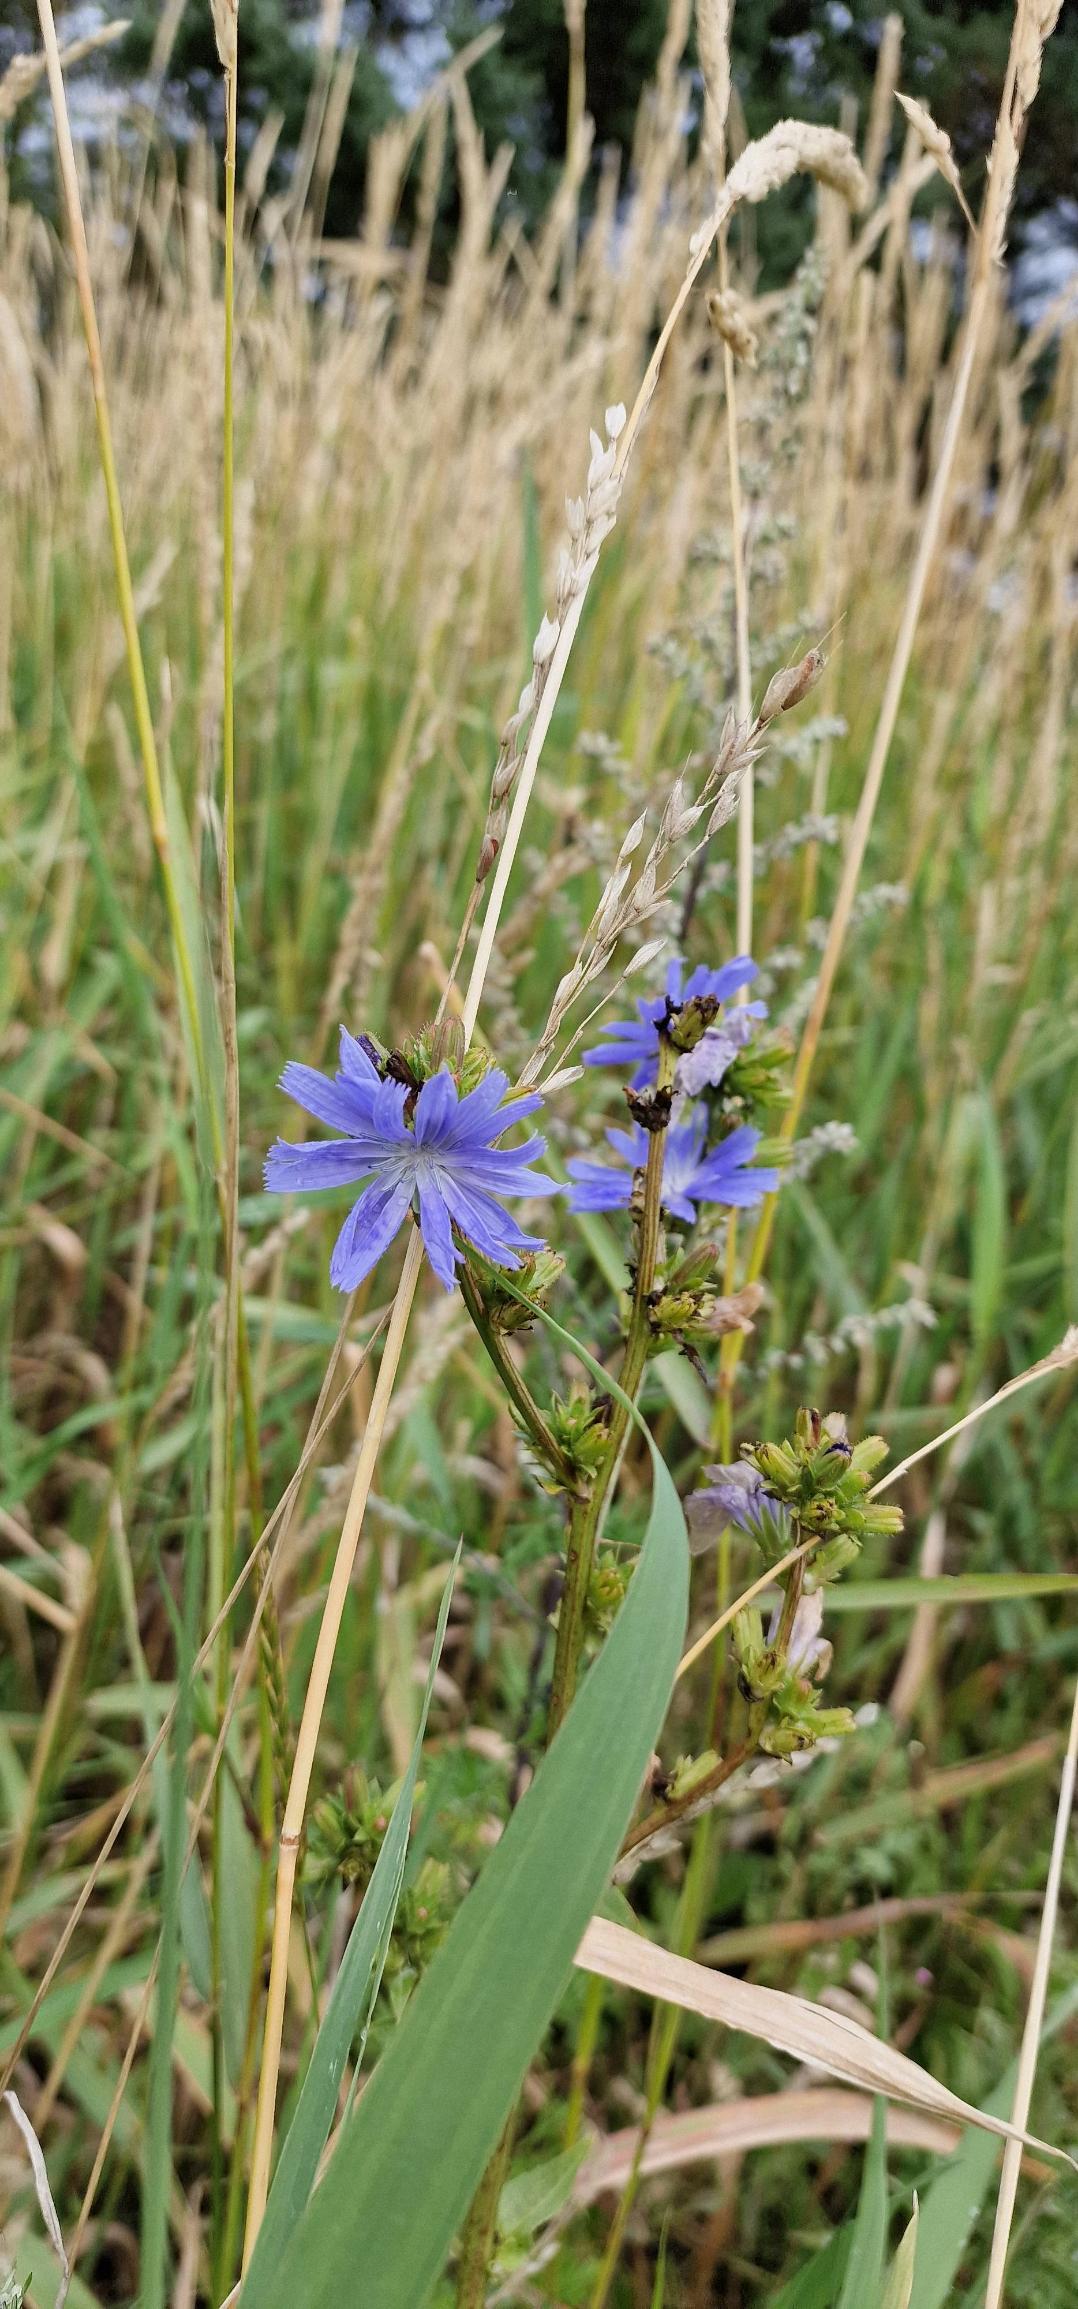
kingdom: Plantae
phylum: Tracheophyta
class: Magnoliopsida
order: Asterales
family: Asteraceae
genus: Cichorium
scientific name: Cichorium intybus
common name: Cikorie
